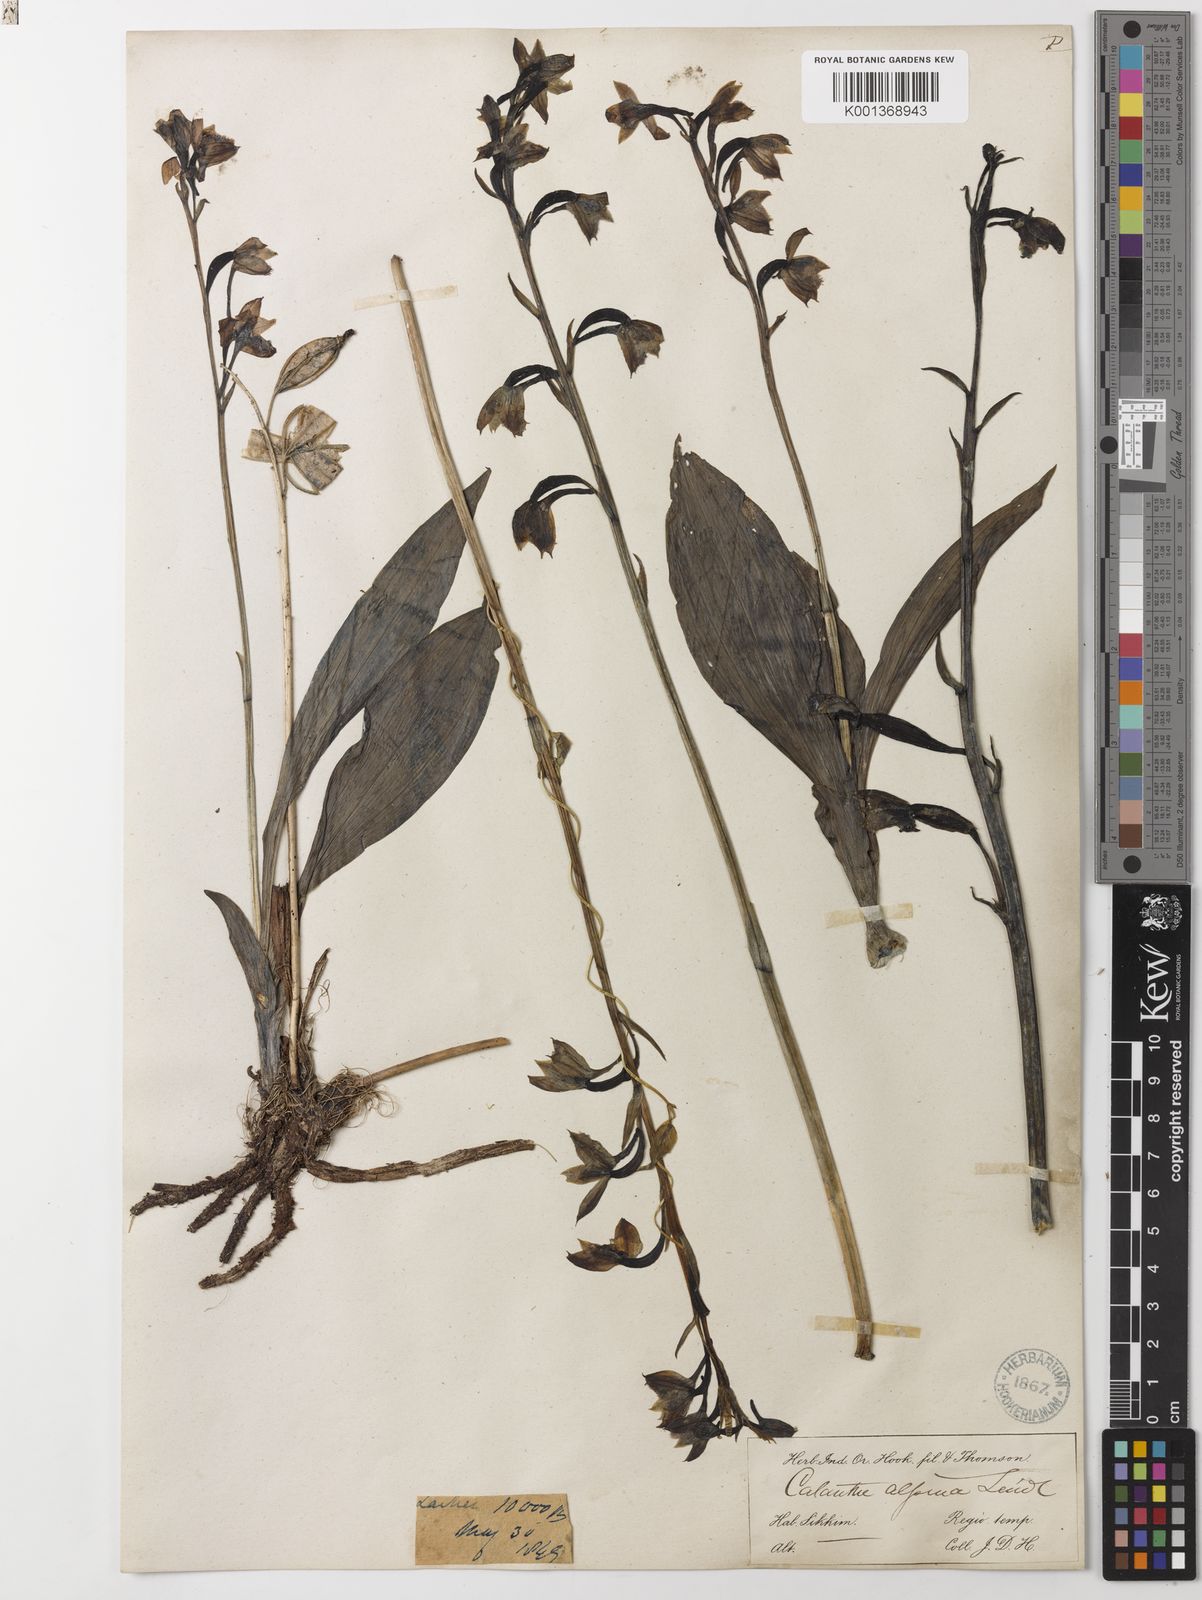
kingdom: Plantae
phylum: Tracheophyta
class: Liliopsida
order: Asparagales
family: Orchidaceae
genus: Calanthe
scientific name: Calanthe alpina
